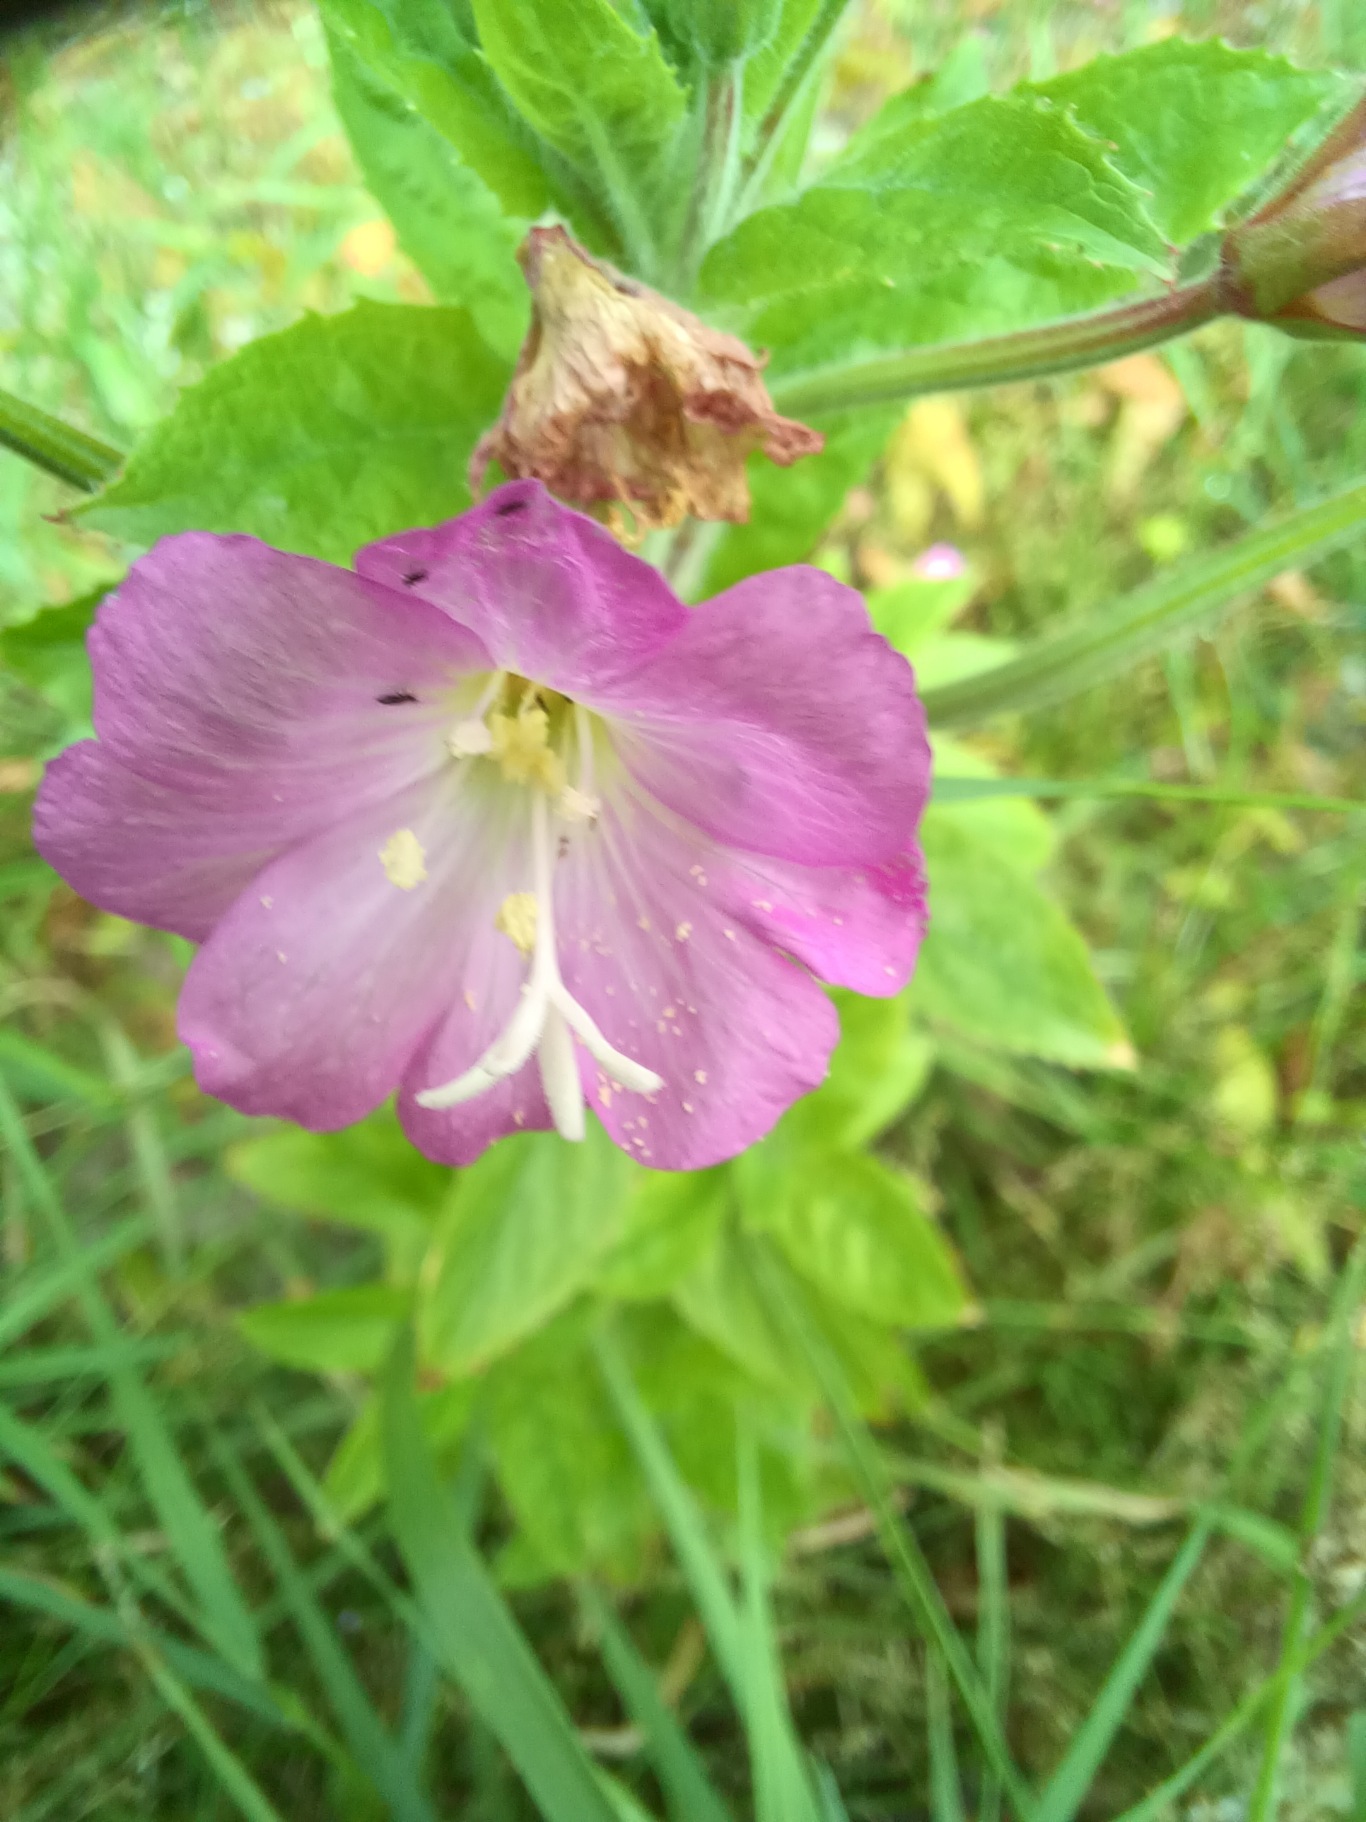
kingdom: Plantae
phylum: Tracheophyta
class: Magnoliopsida
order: Myrtales
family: Onagraceae
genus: Epilobium
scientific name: Epilobium hirsutum
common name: Lådden dueurt
